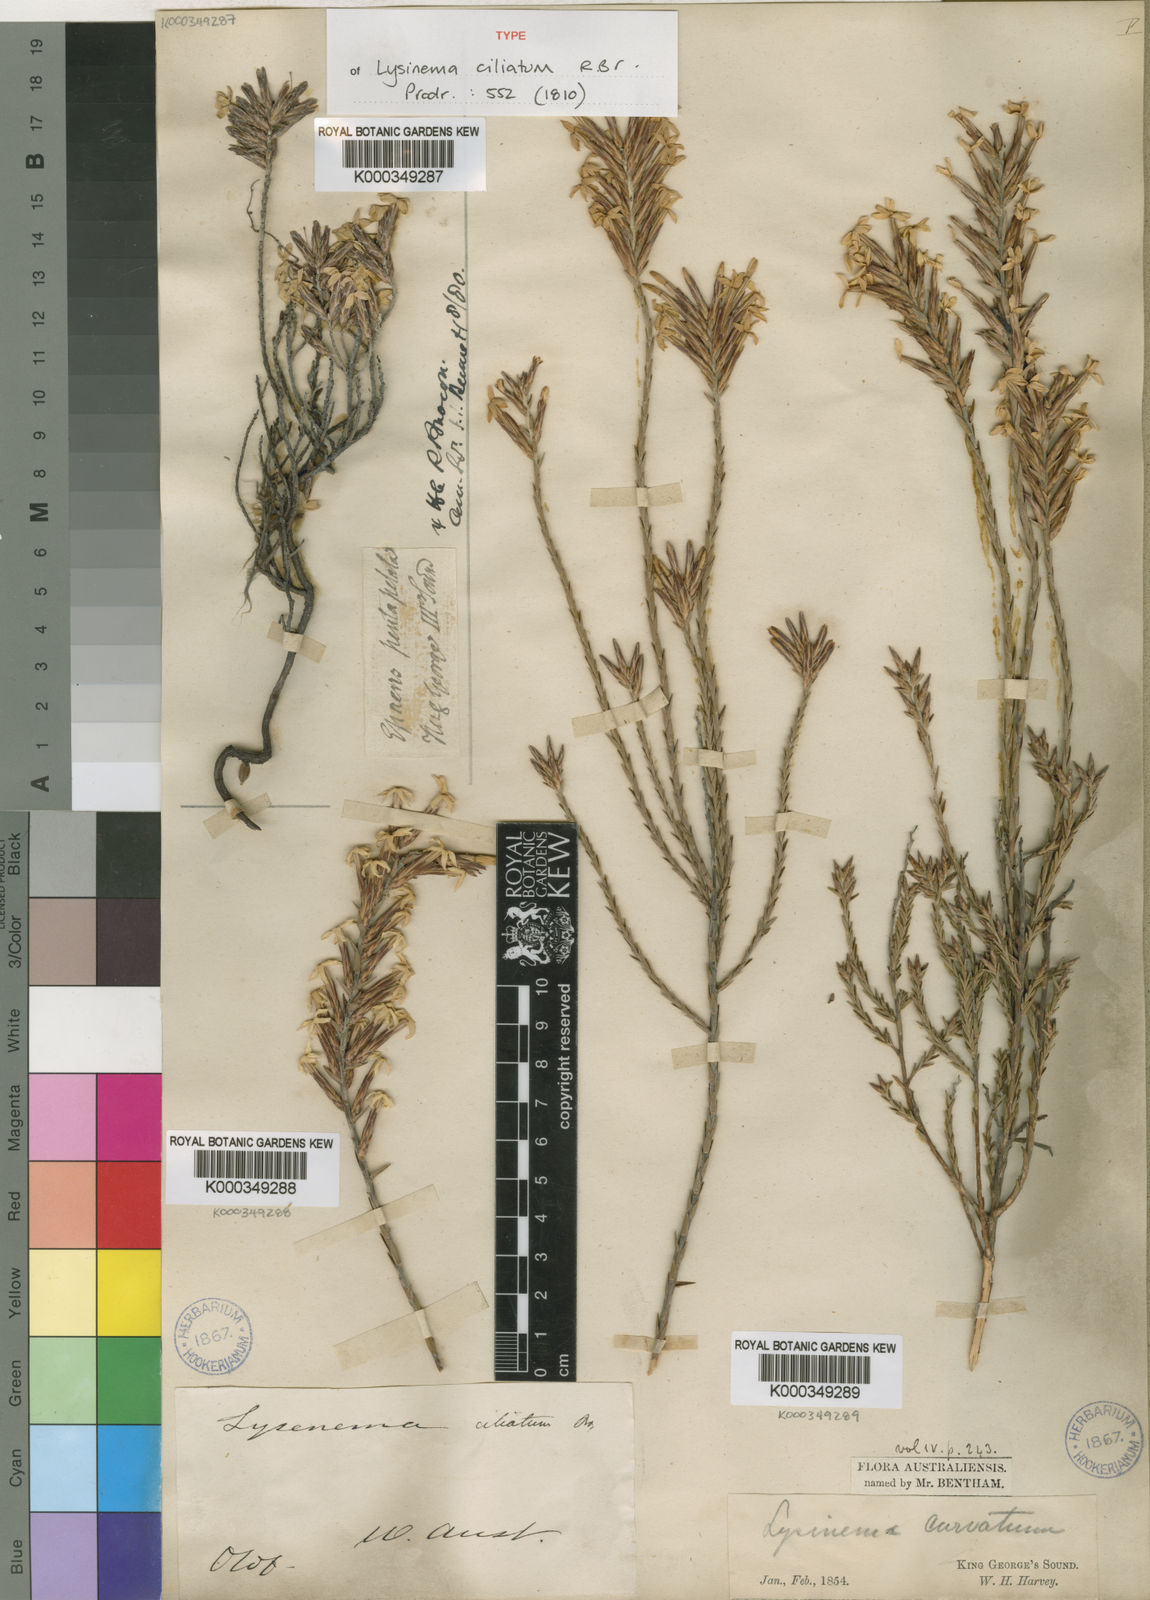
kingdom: Plantae
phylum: Tracheophyta
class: Magnoliopsida
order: Ericales
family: Ericaceae
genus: Lysinema
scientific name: Lysinema ciliatum
